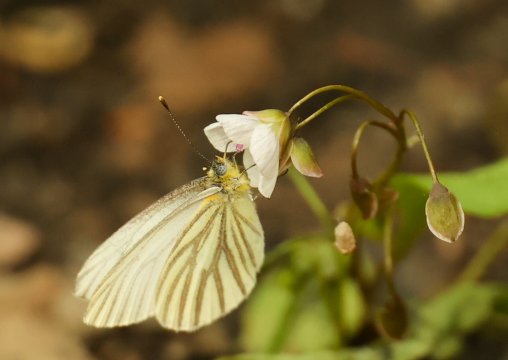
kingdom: Animalia
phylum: Arthropoda
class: Insecta
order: Lepidoptera
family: Pieridae
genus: Pieris
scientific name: Pieris oleracea
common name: Mustard White
